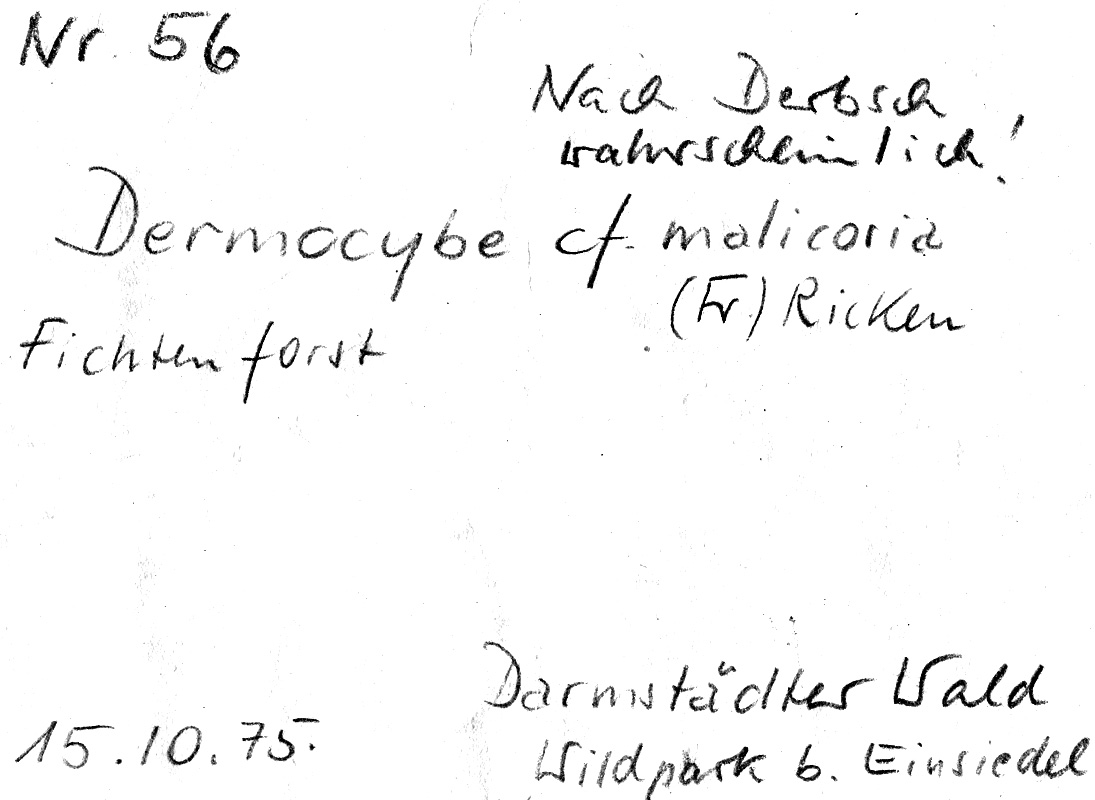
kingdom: Fungi
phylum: Basidiomycota
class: Agaricomycetes
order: Agaricales
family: Cortinariaceae
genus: Cortinarius
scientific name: Cortinarius malicorius
